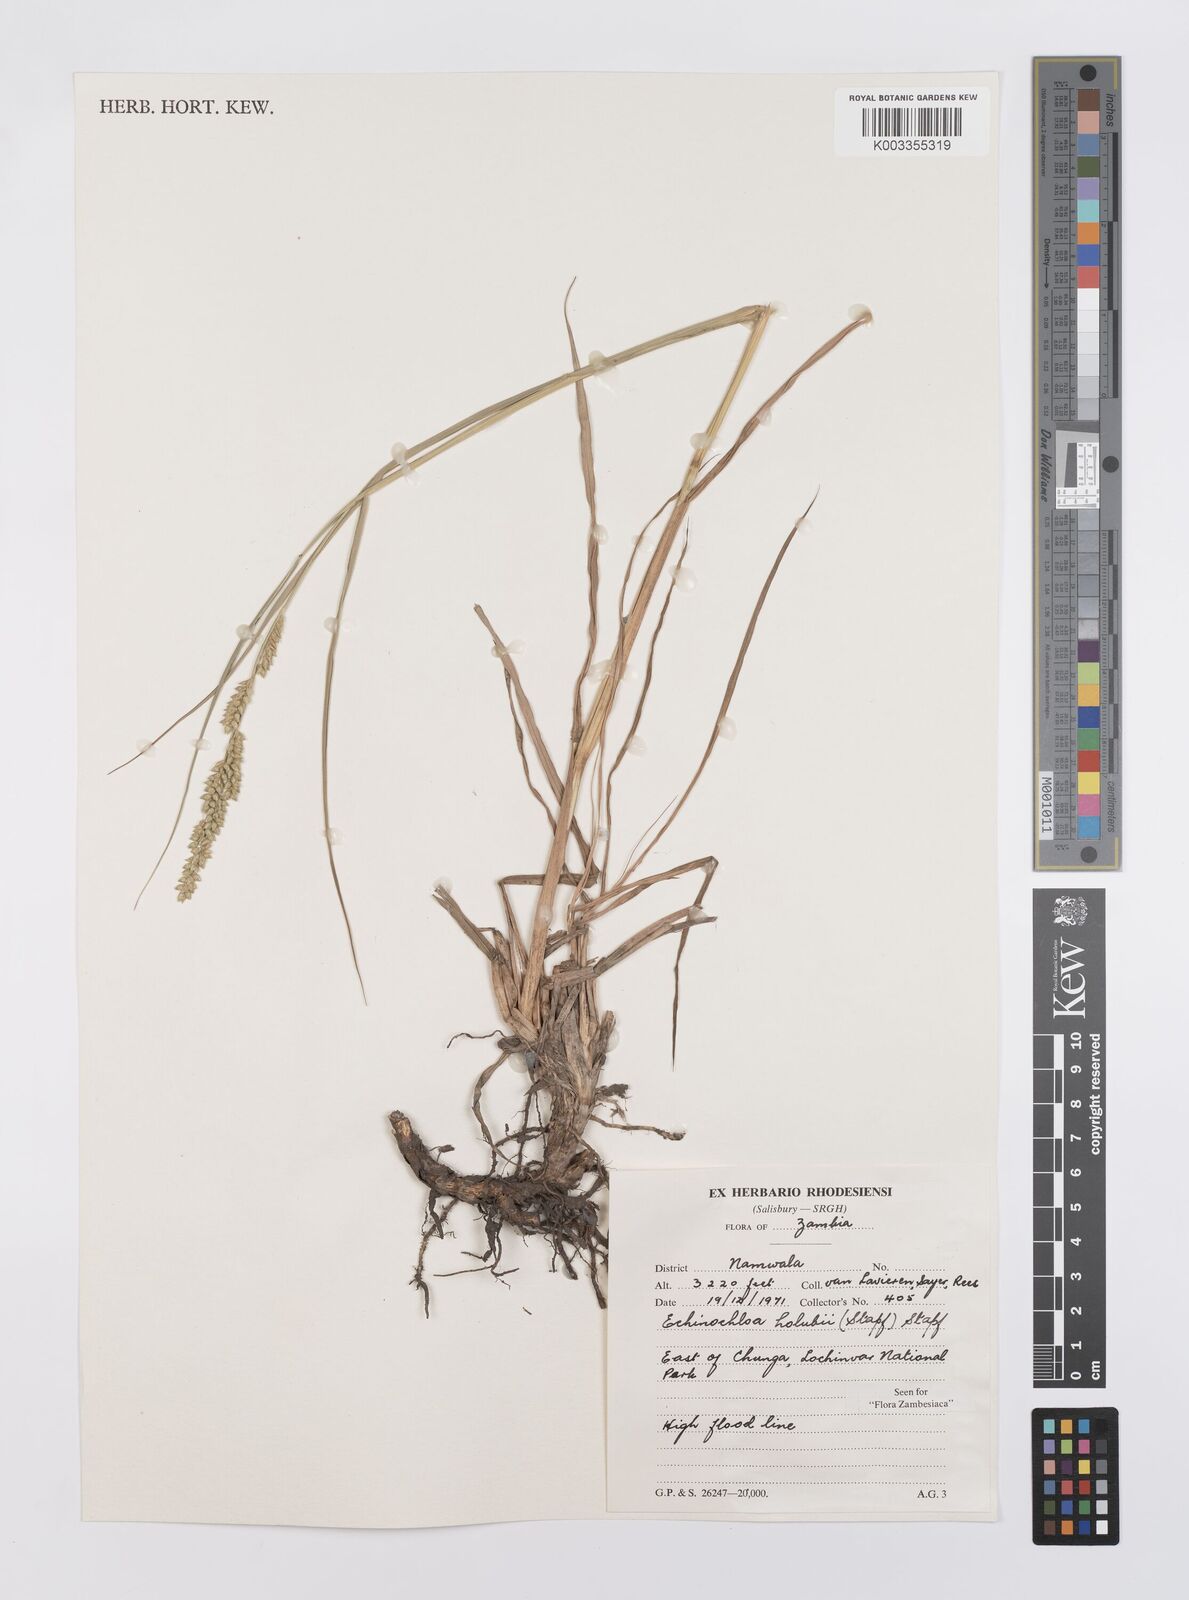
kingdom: Plantae
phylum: Tracheophyta
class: Liliopsida
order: Poales
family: Poaceae
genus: Echinochloa
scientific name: Echinochloa pyramidalis
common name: Antelope grass
